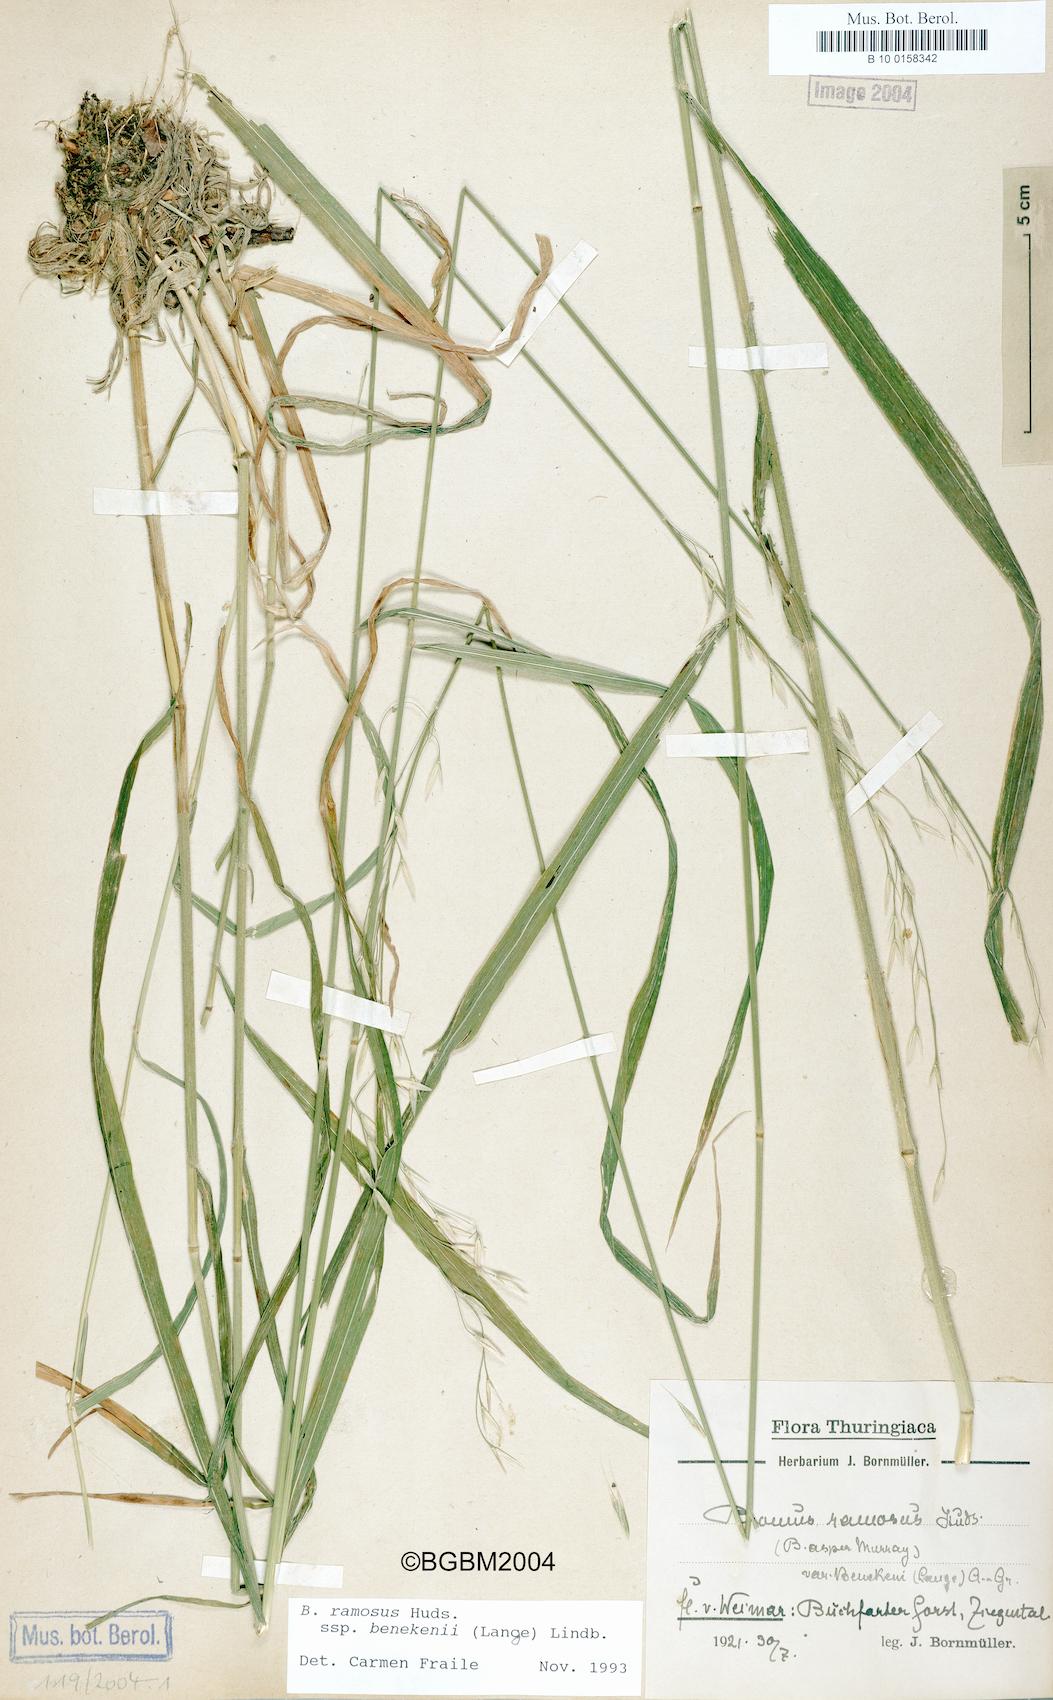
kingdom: Plantae
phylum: Tracheophyta
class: Liliopsida
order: Poales
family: Poaceae
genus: Bromus
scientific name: Bromus benekenii
